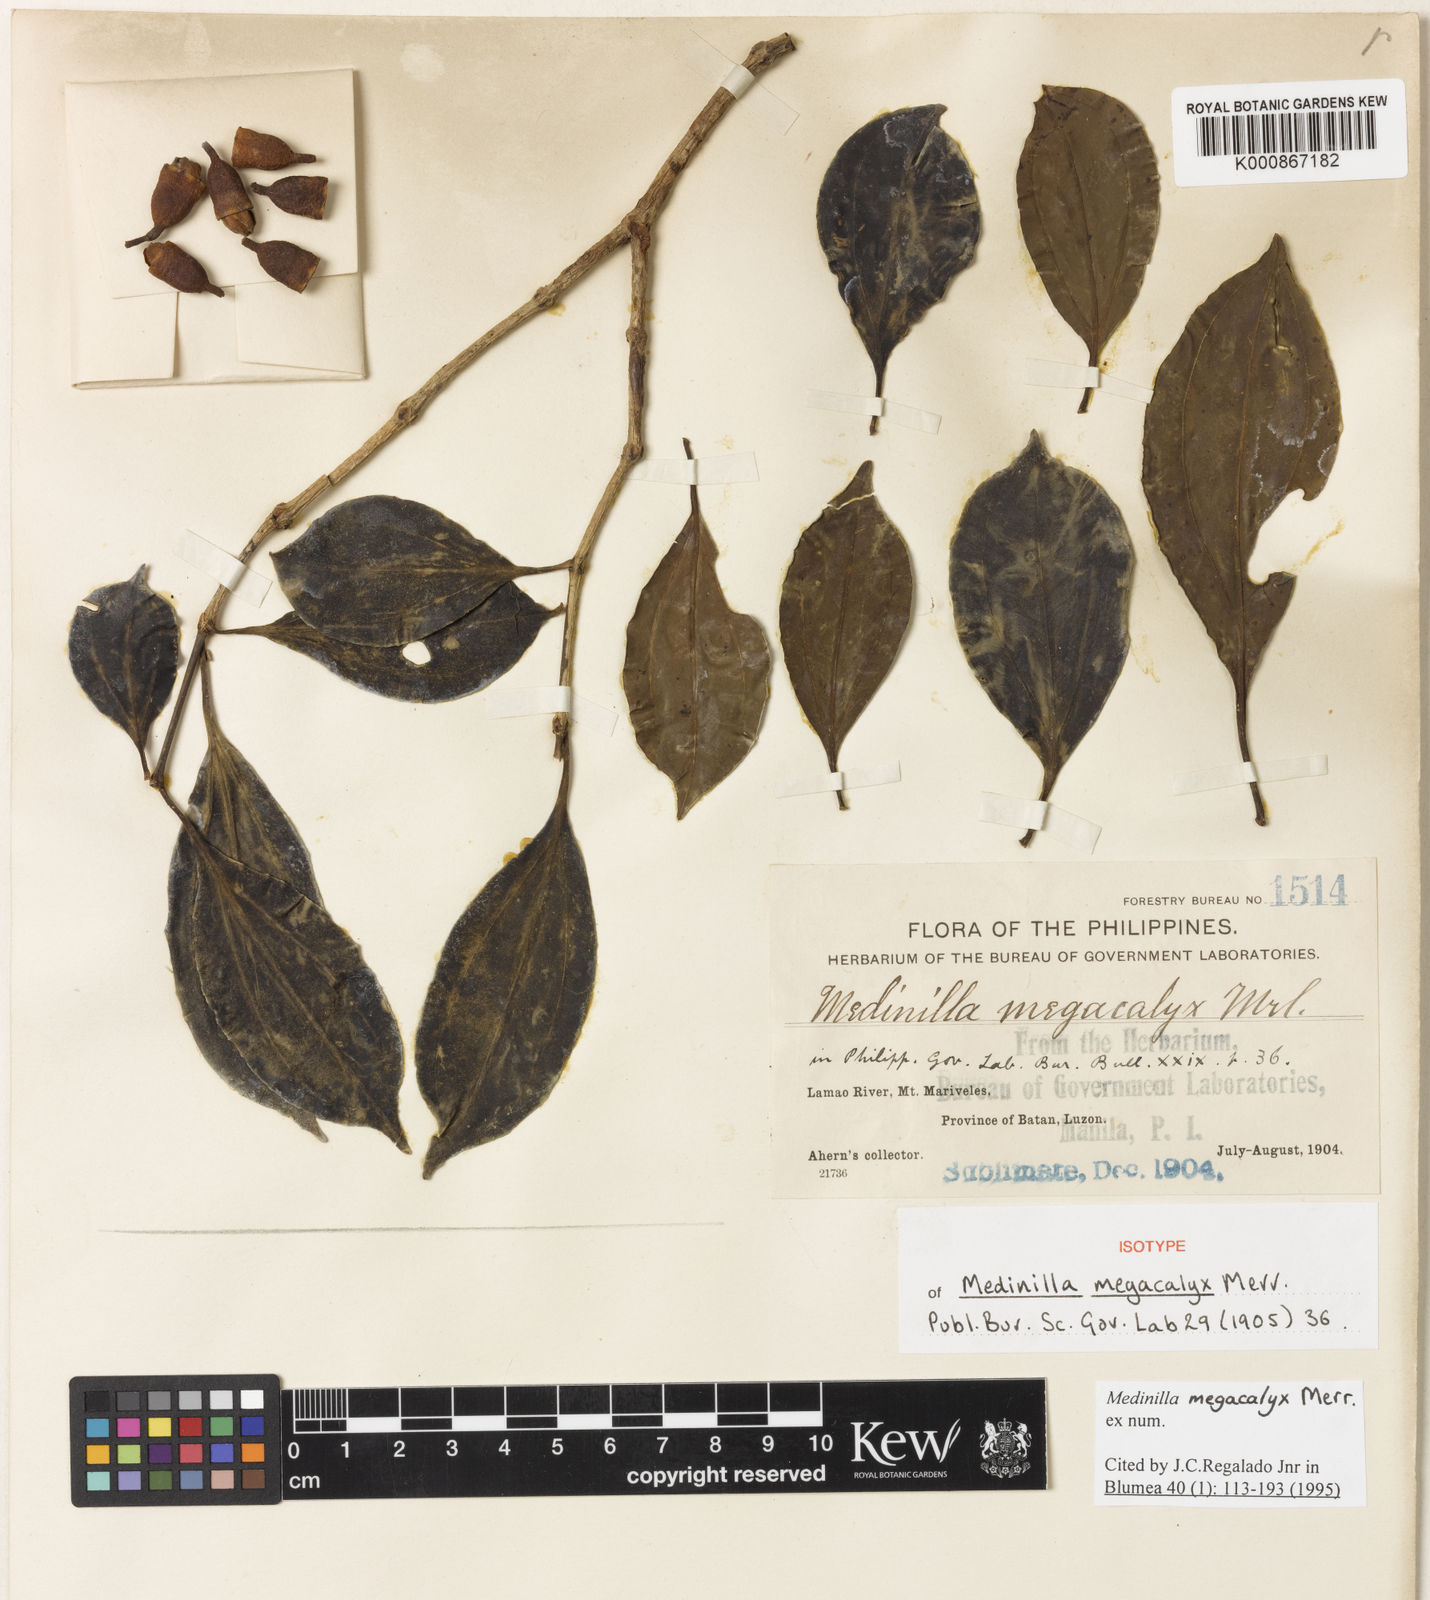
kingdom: Plantae
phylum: Tracheophyta
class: Magnoliopsida
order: Myrtales
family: Melastomataceae
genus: Medinilla
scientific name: Medinilla megacalyx
